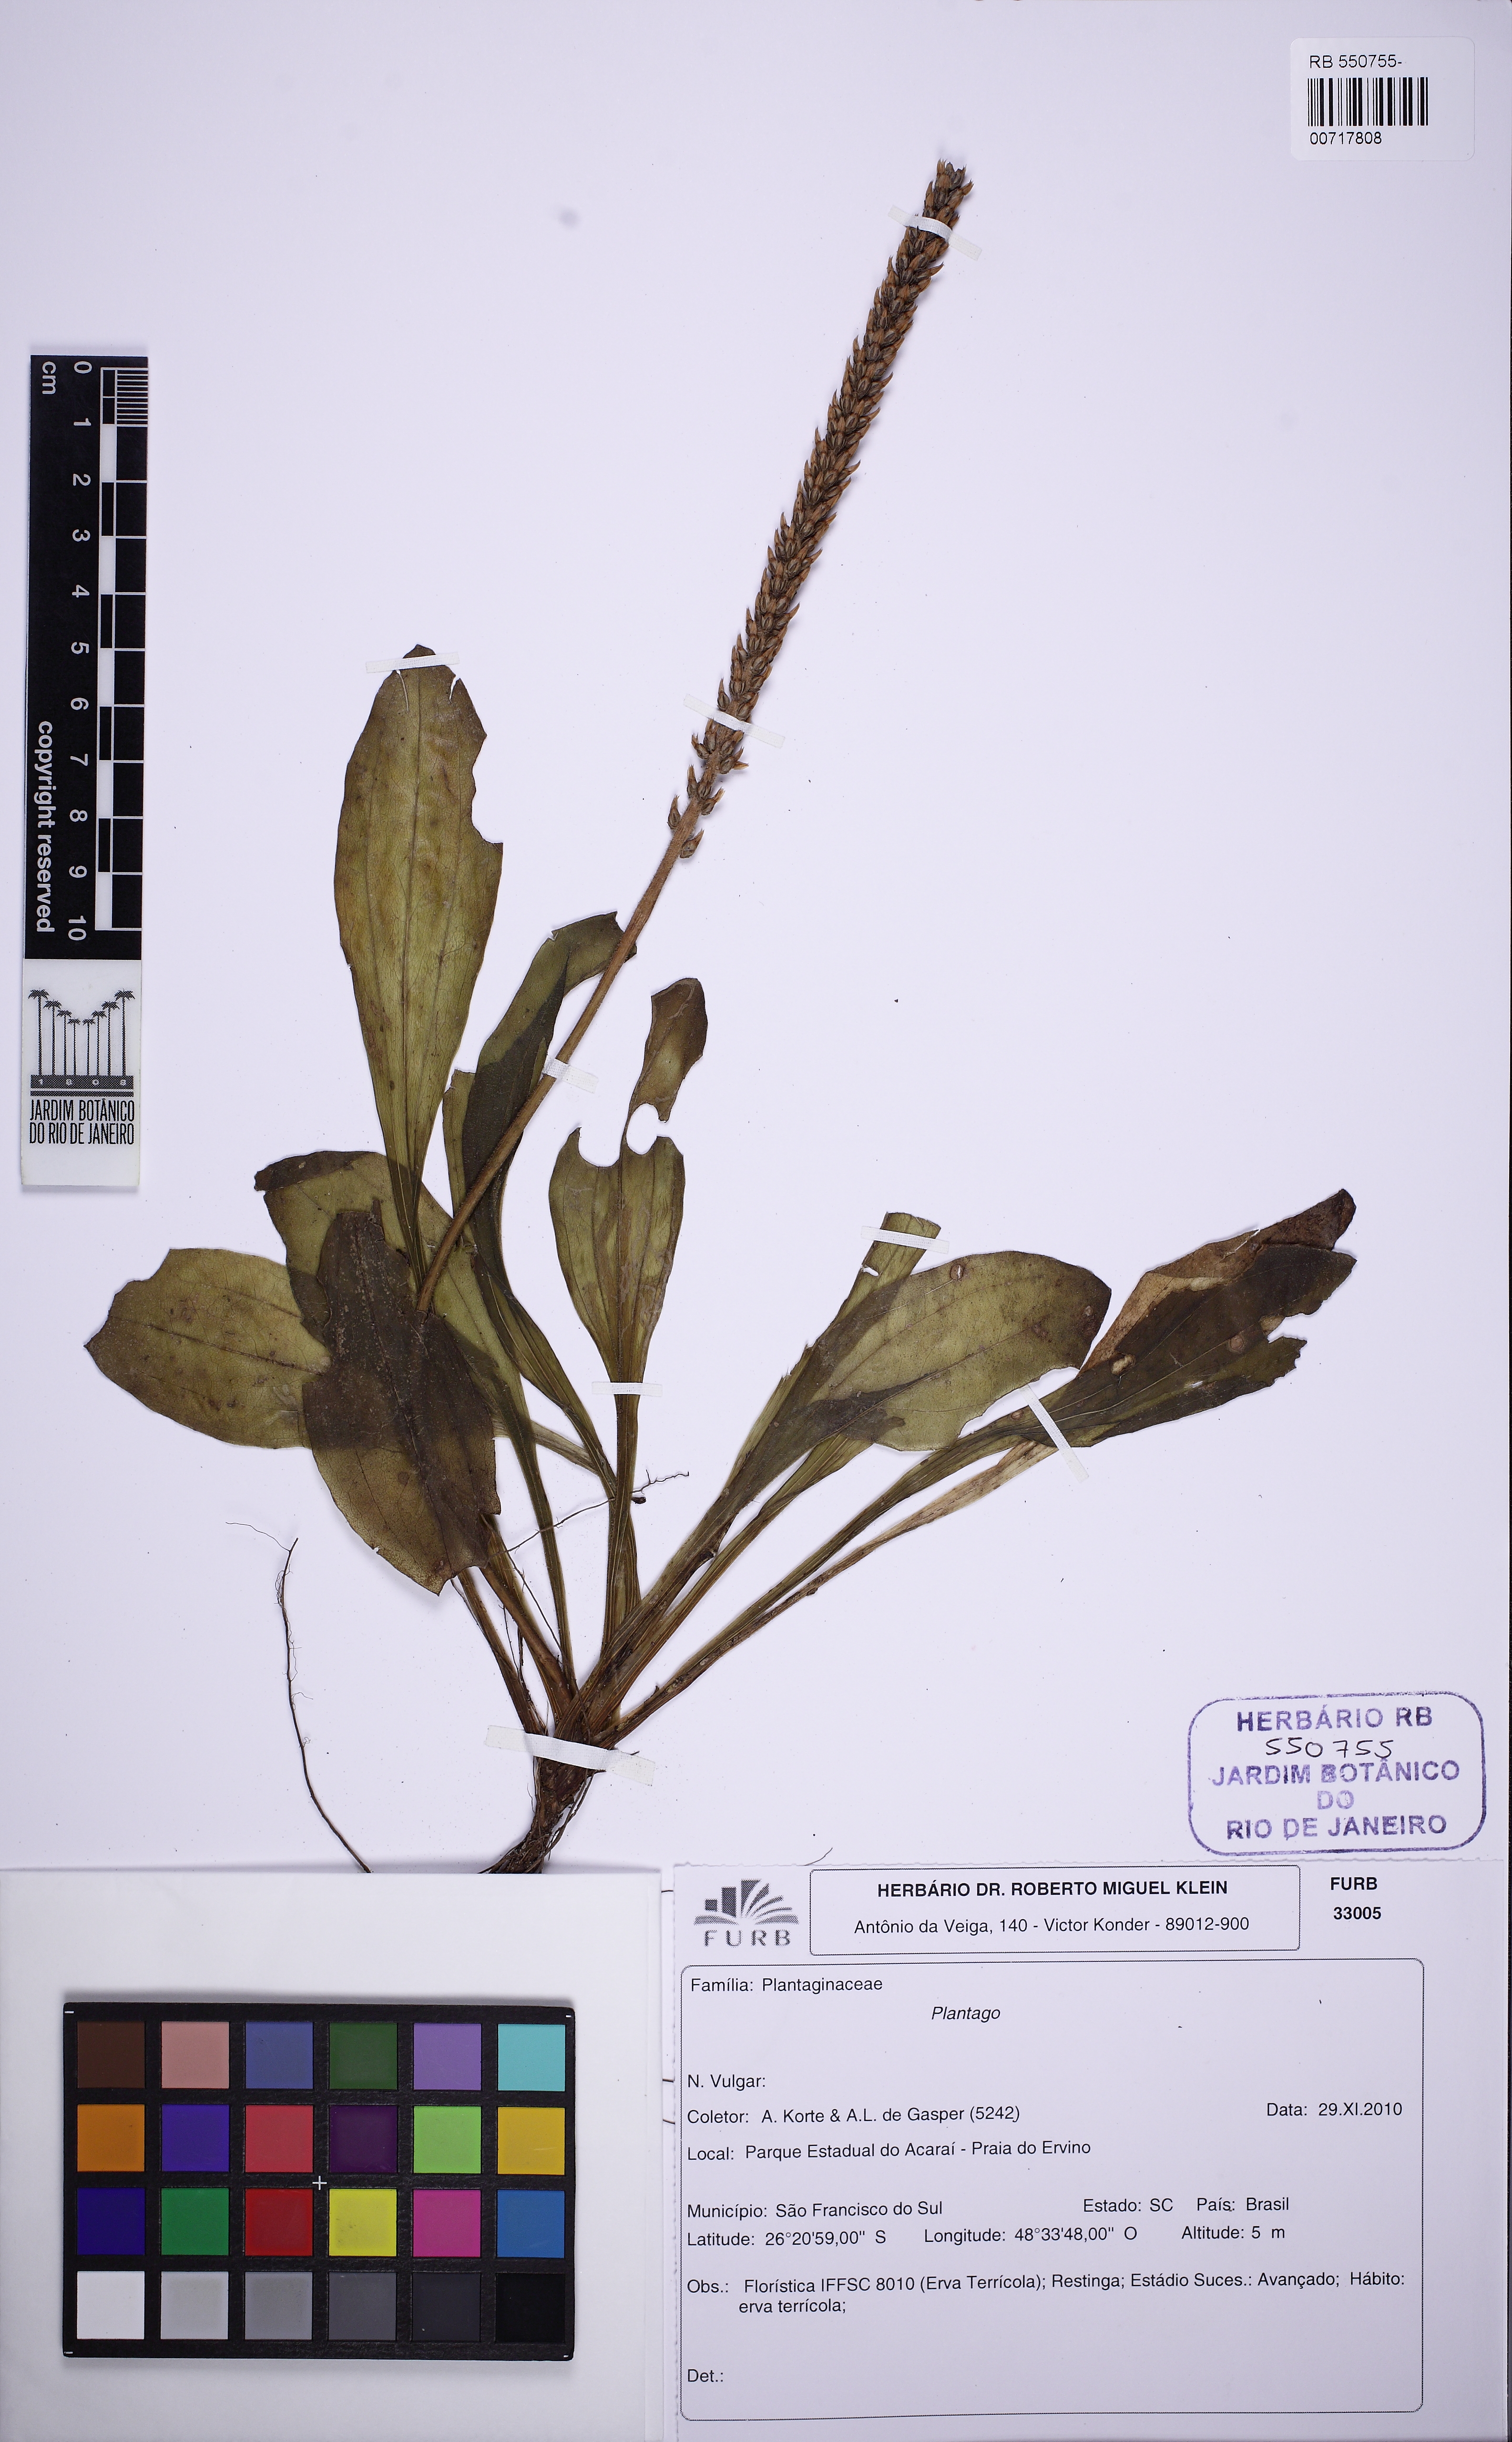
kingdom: Plantae
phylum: Tracheophyta
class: Magnoliopsida
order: Lamiales
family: Plantaginaceae
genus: Plantago
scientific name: Plantago
